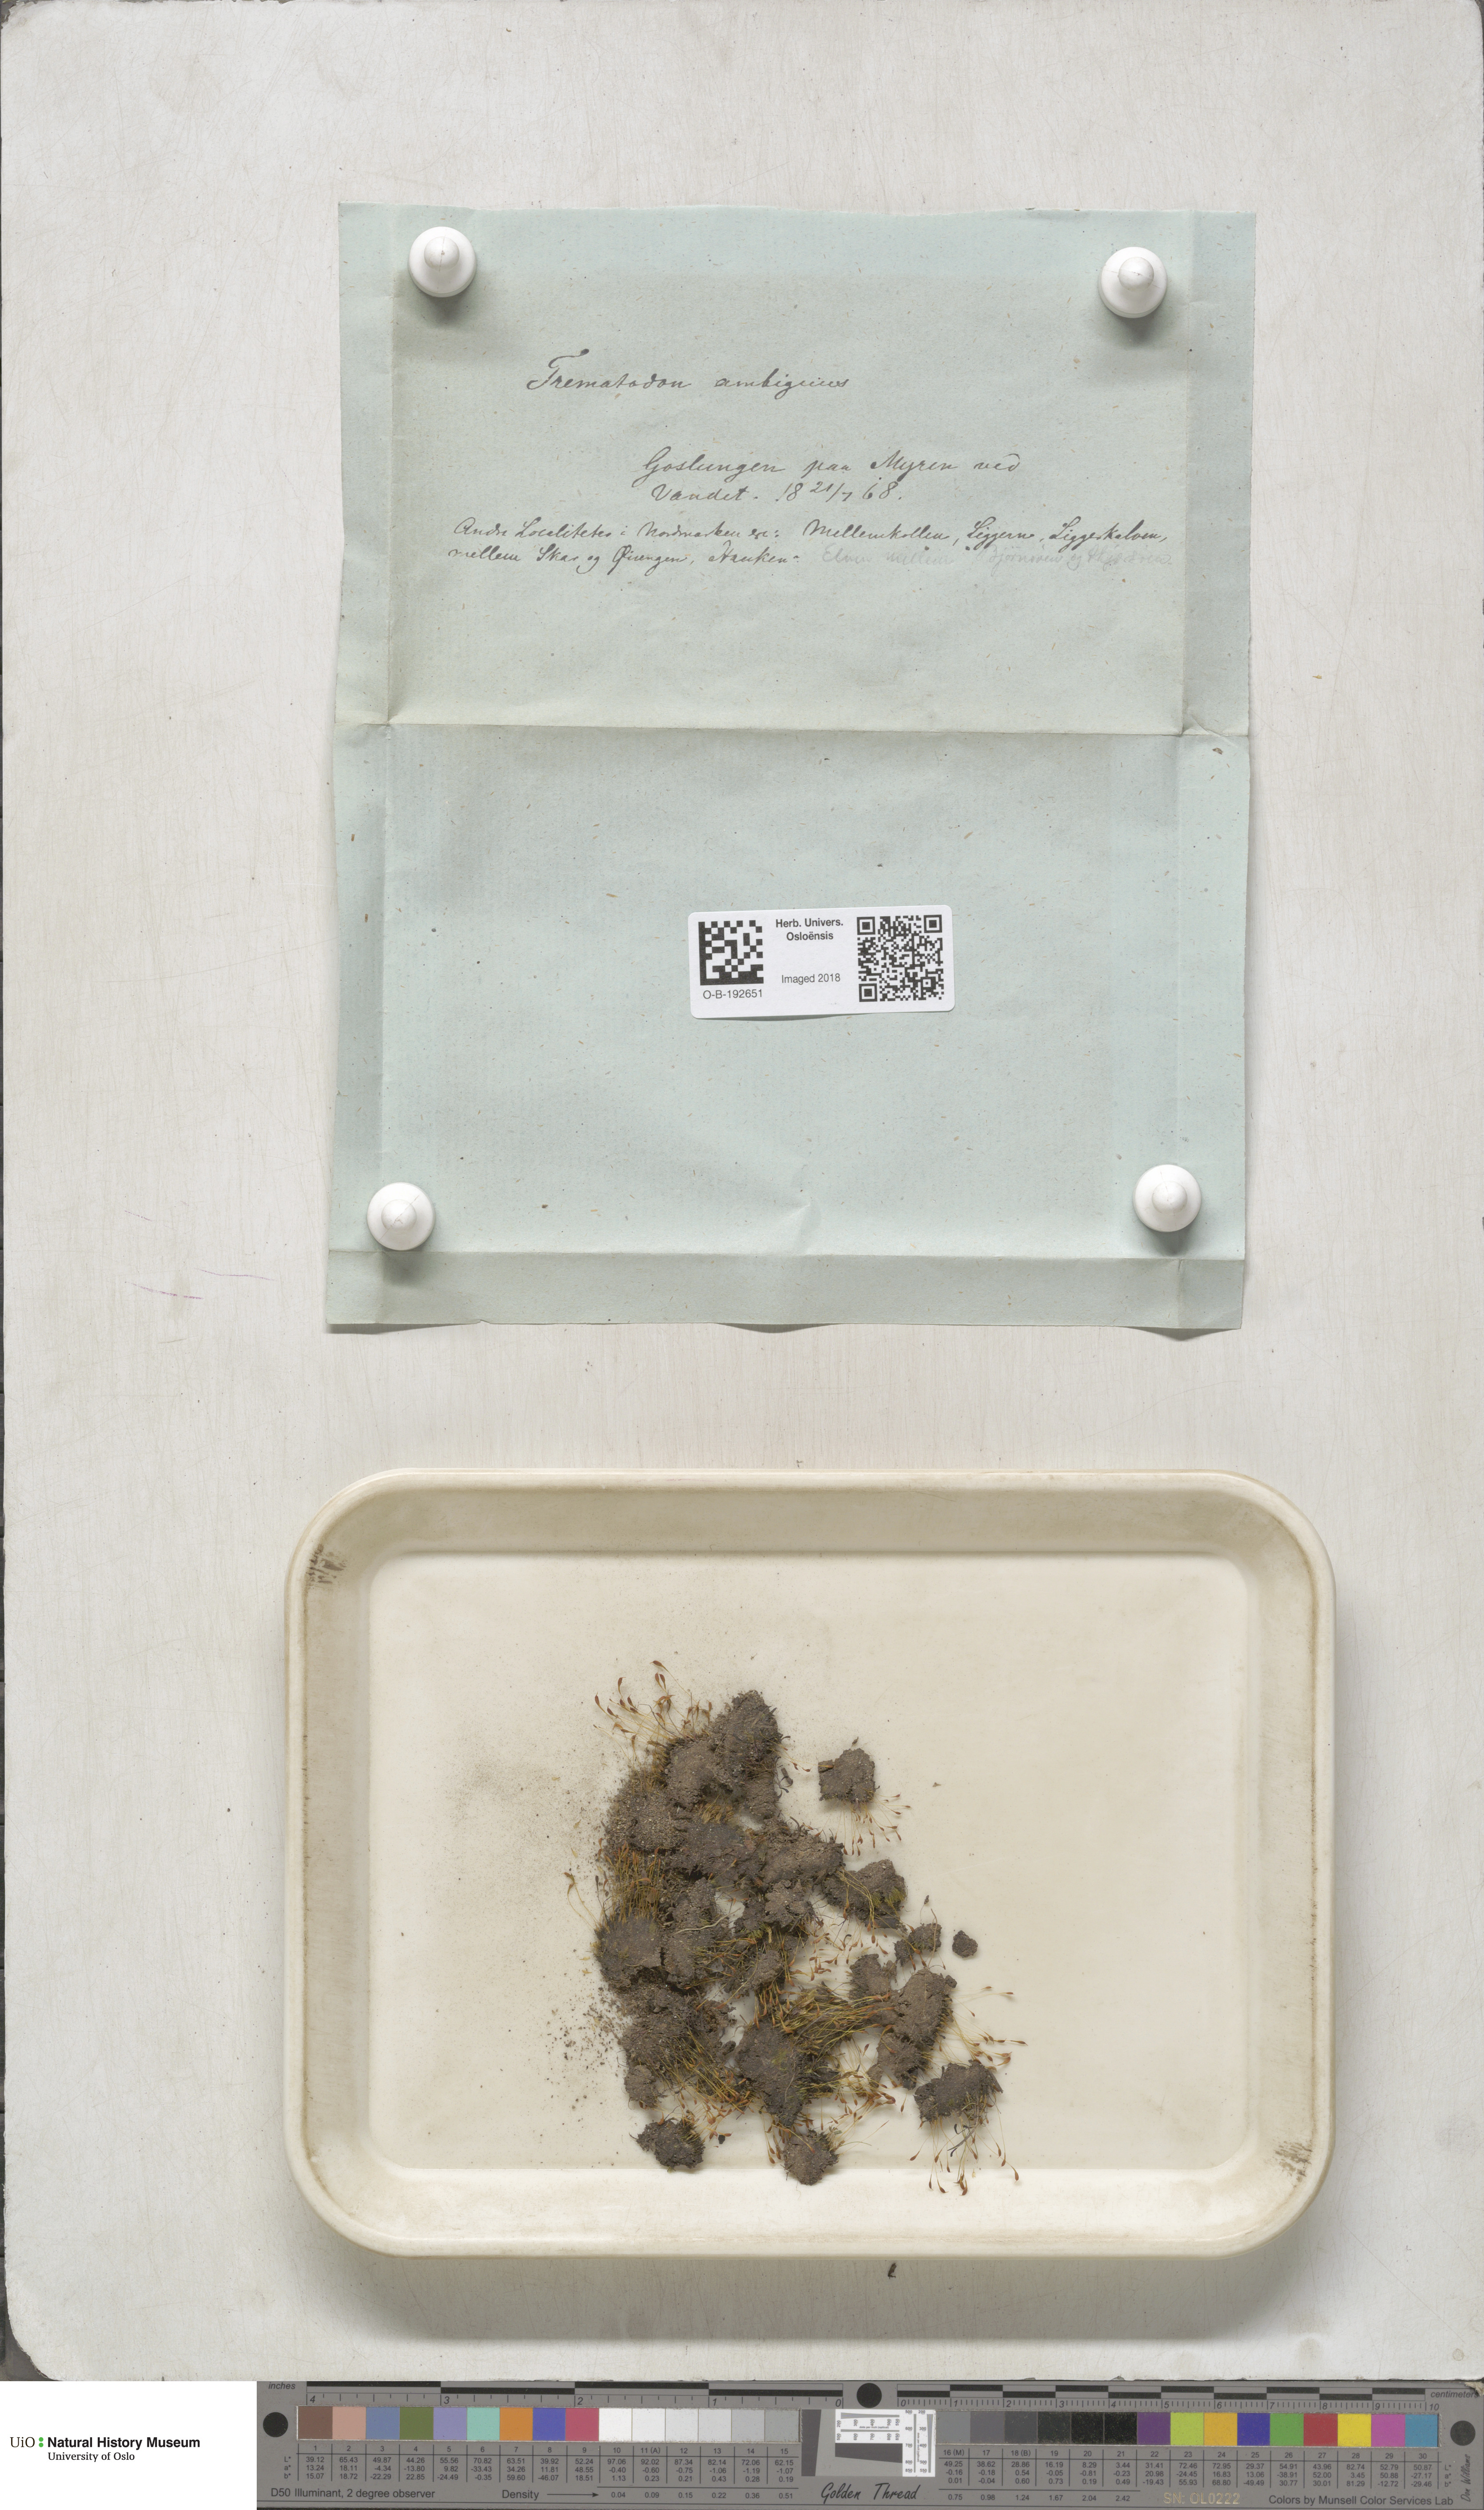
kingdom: Plantae
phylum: Bryophyta
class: Bryopsida
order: Dicranales
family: Bruchiaceae
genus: Trematodon
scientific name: Trematodon ambiguus
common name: Ambiguous long-necked moss
